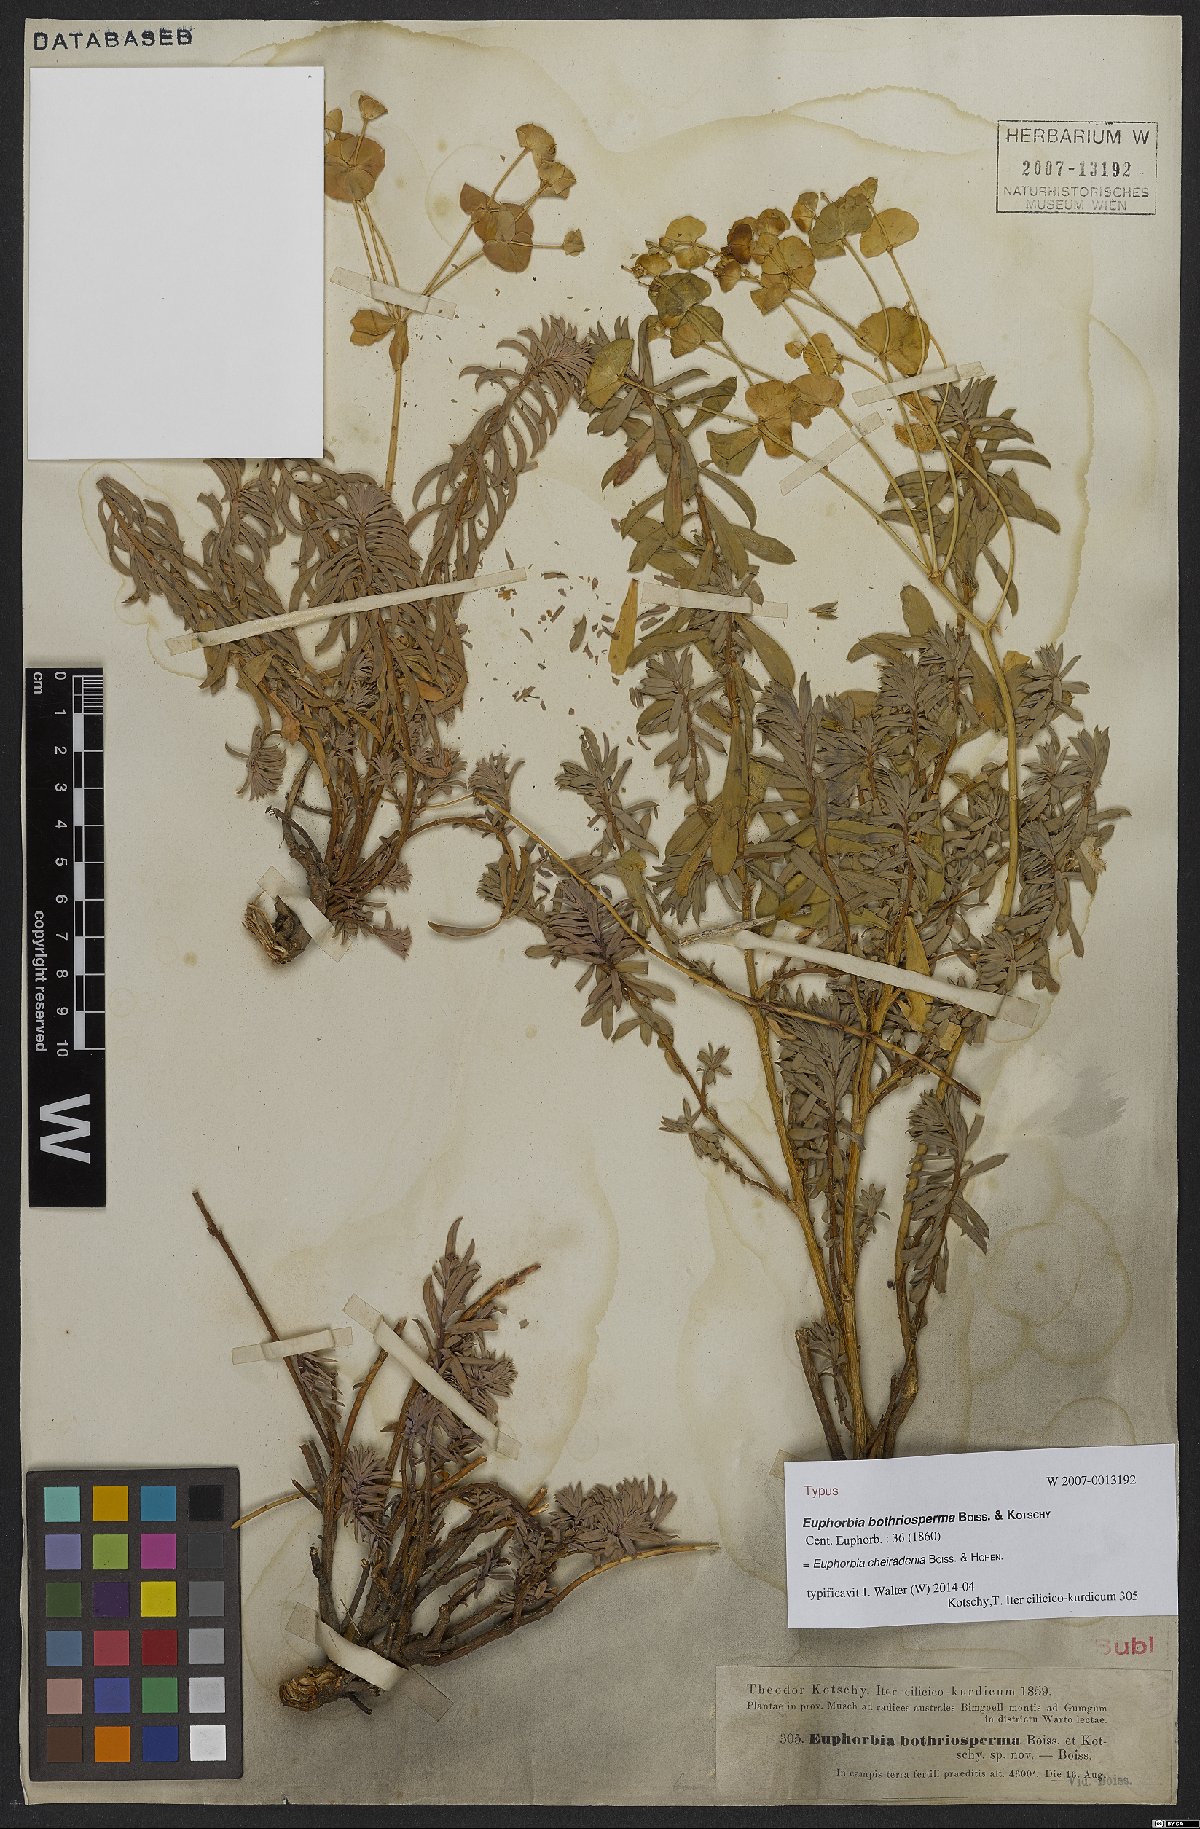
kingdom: Plantae
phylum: Tracheophyta
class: Magnoliopsida
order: Malpighiales
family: Euphorbiaceae
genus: Euphorbia
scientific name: Euphorbia cheiradenia
